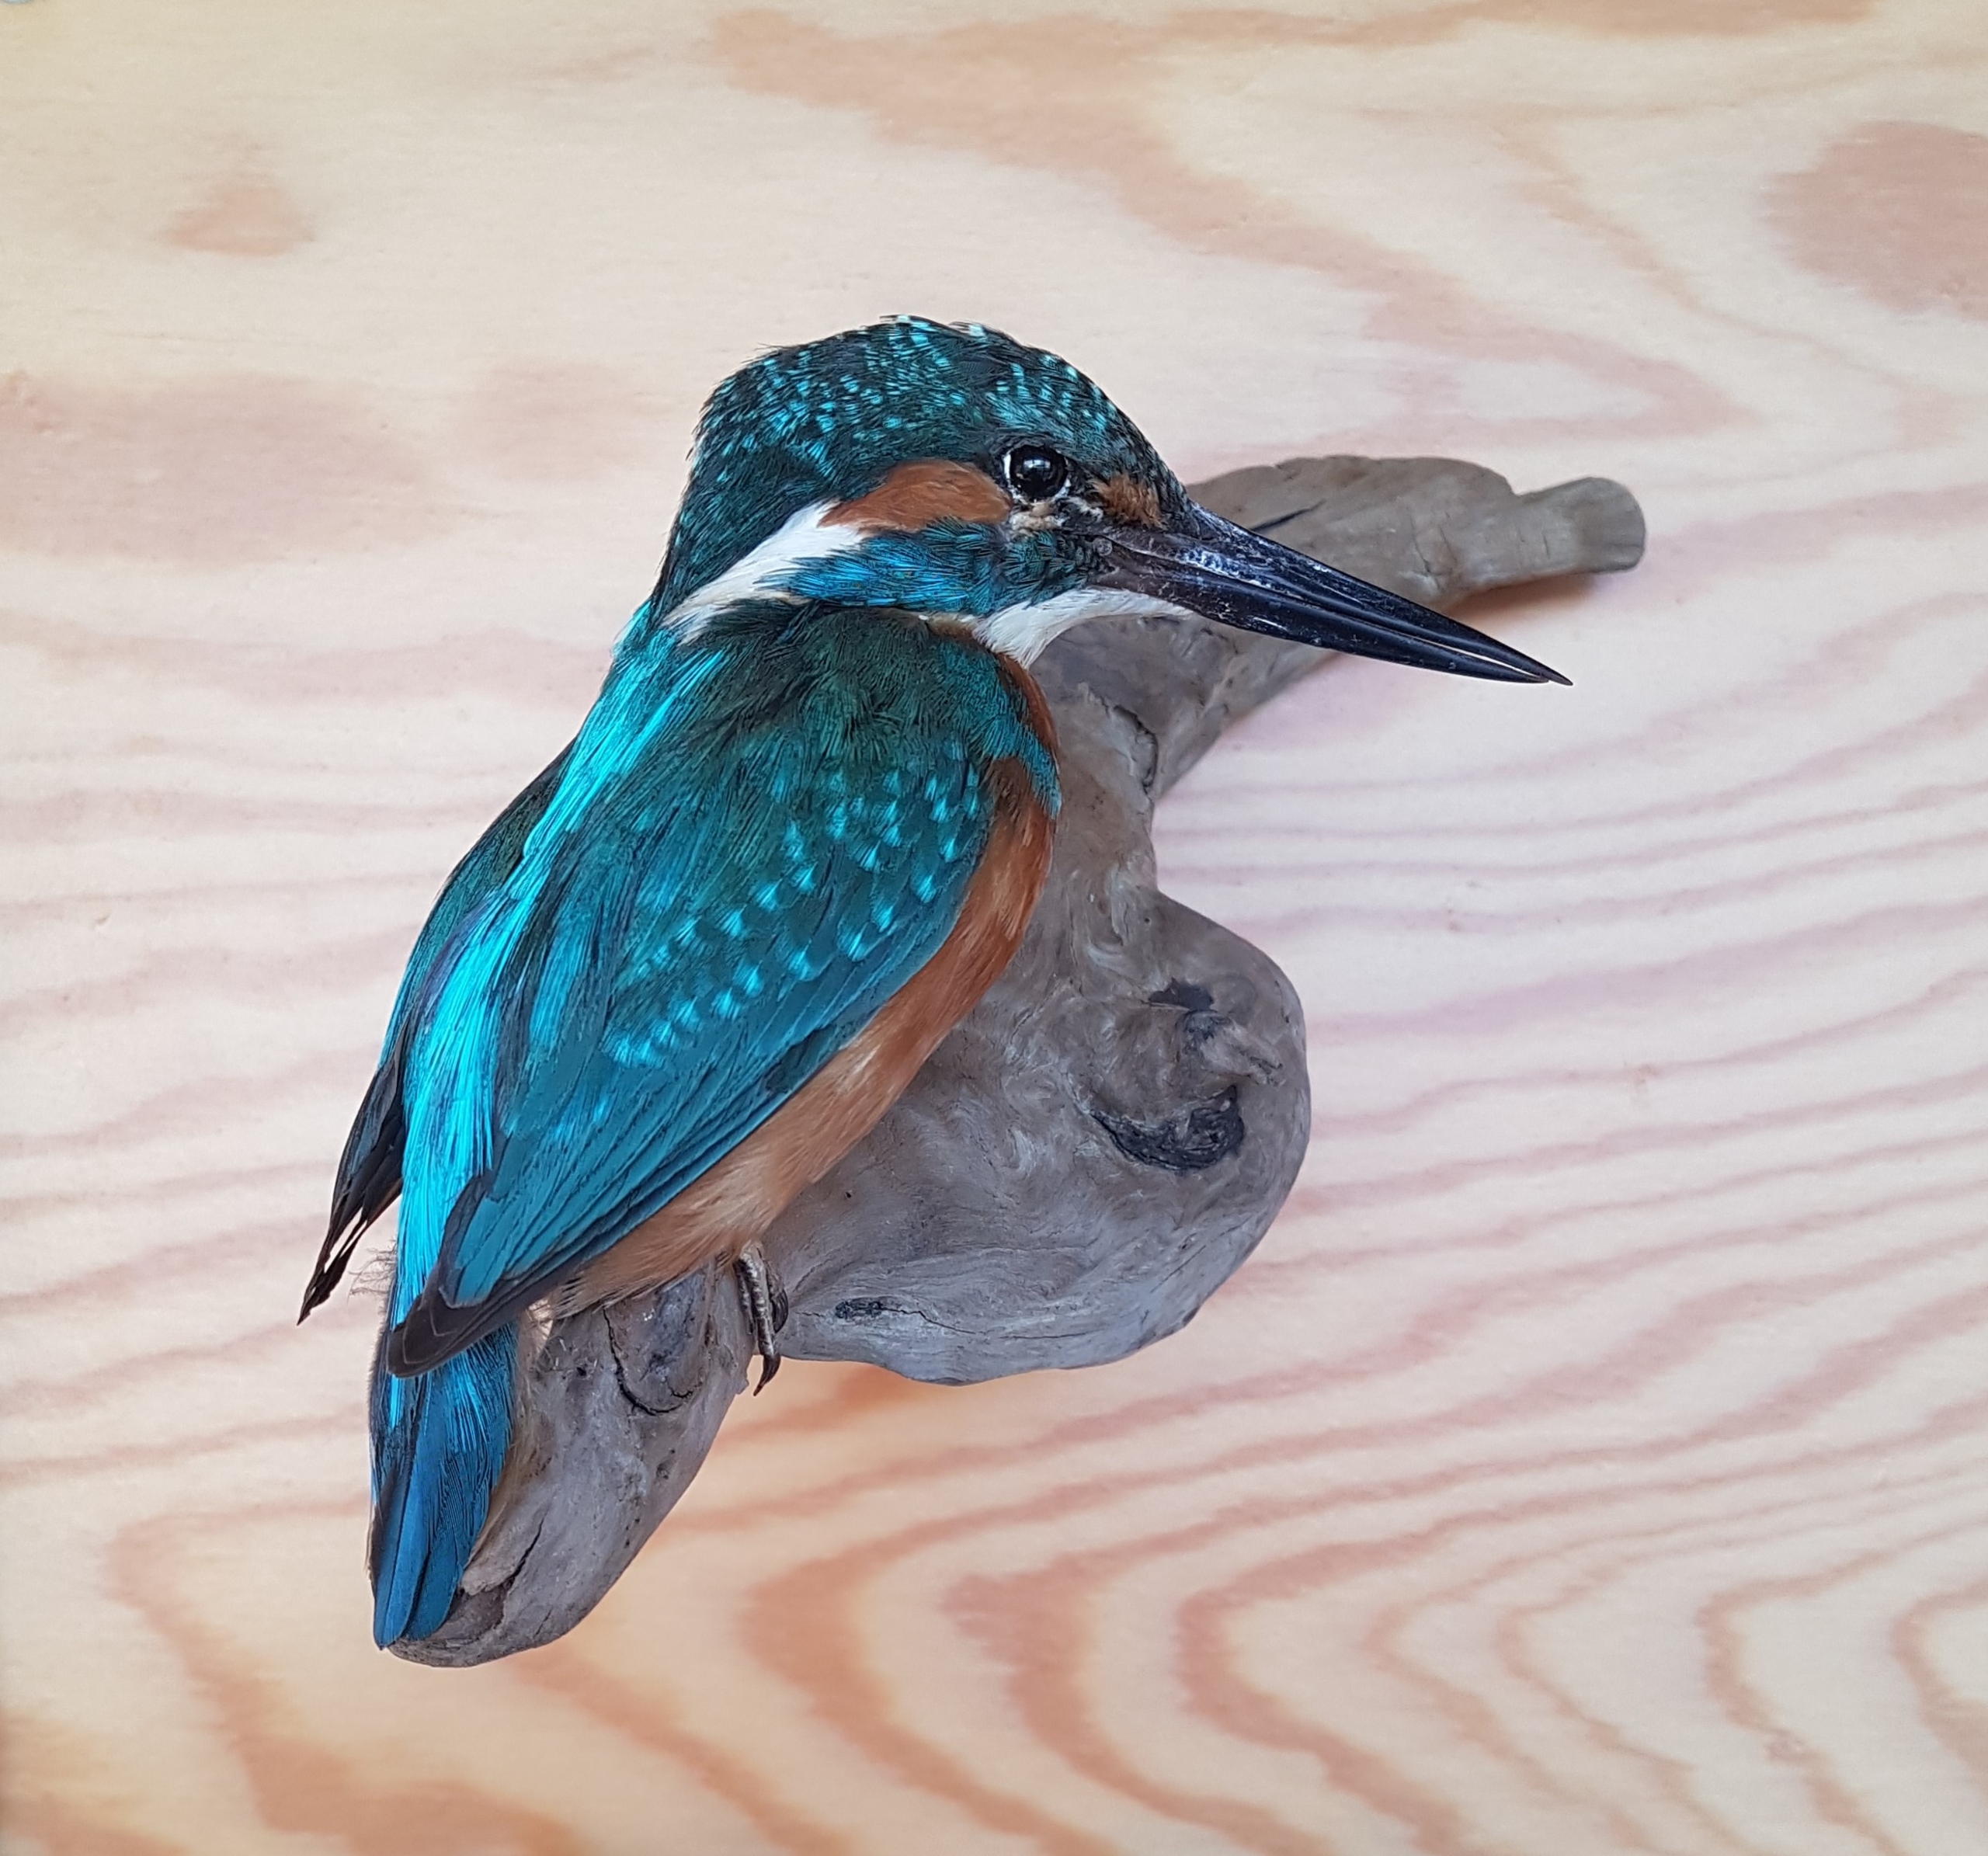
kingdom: Animalia
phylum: Chordata
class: Aves
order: Coraciiformes
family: Alcedinidae
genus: Alcedo
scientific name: Alcedo atthis
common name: Isfugl
